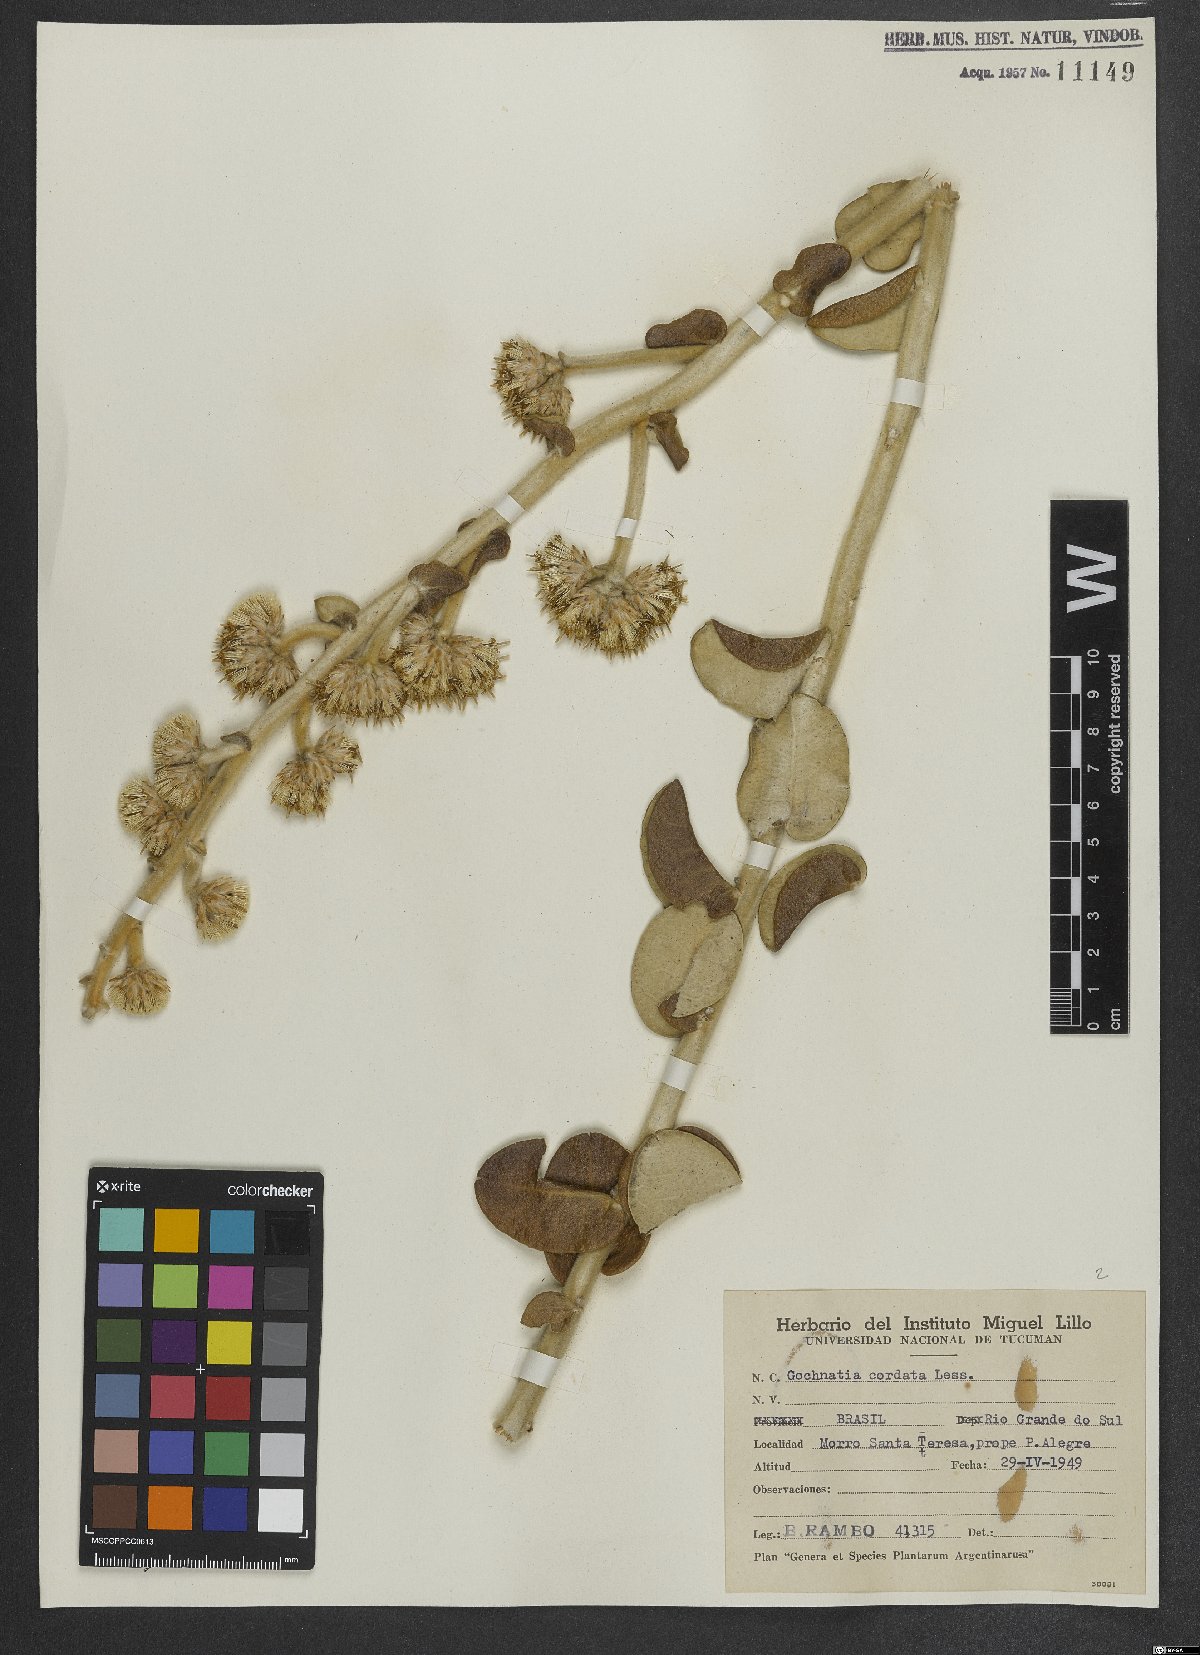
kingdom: Plantae
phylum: Tracheophyta
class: Magnoliopsida
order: Asterales
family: Asteraceae
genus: Moquiniastrum
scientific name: Moquiniastrum cordatum
